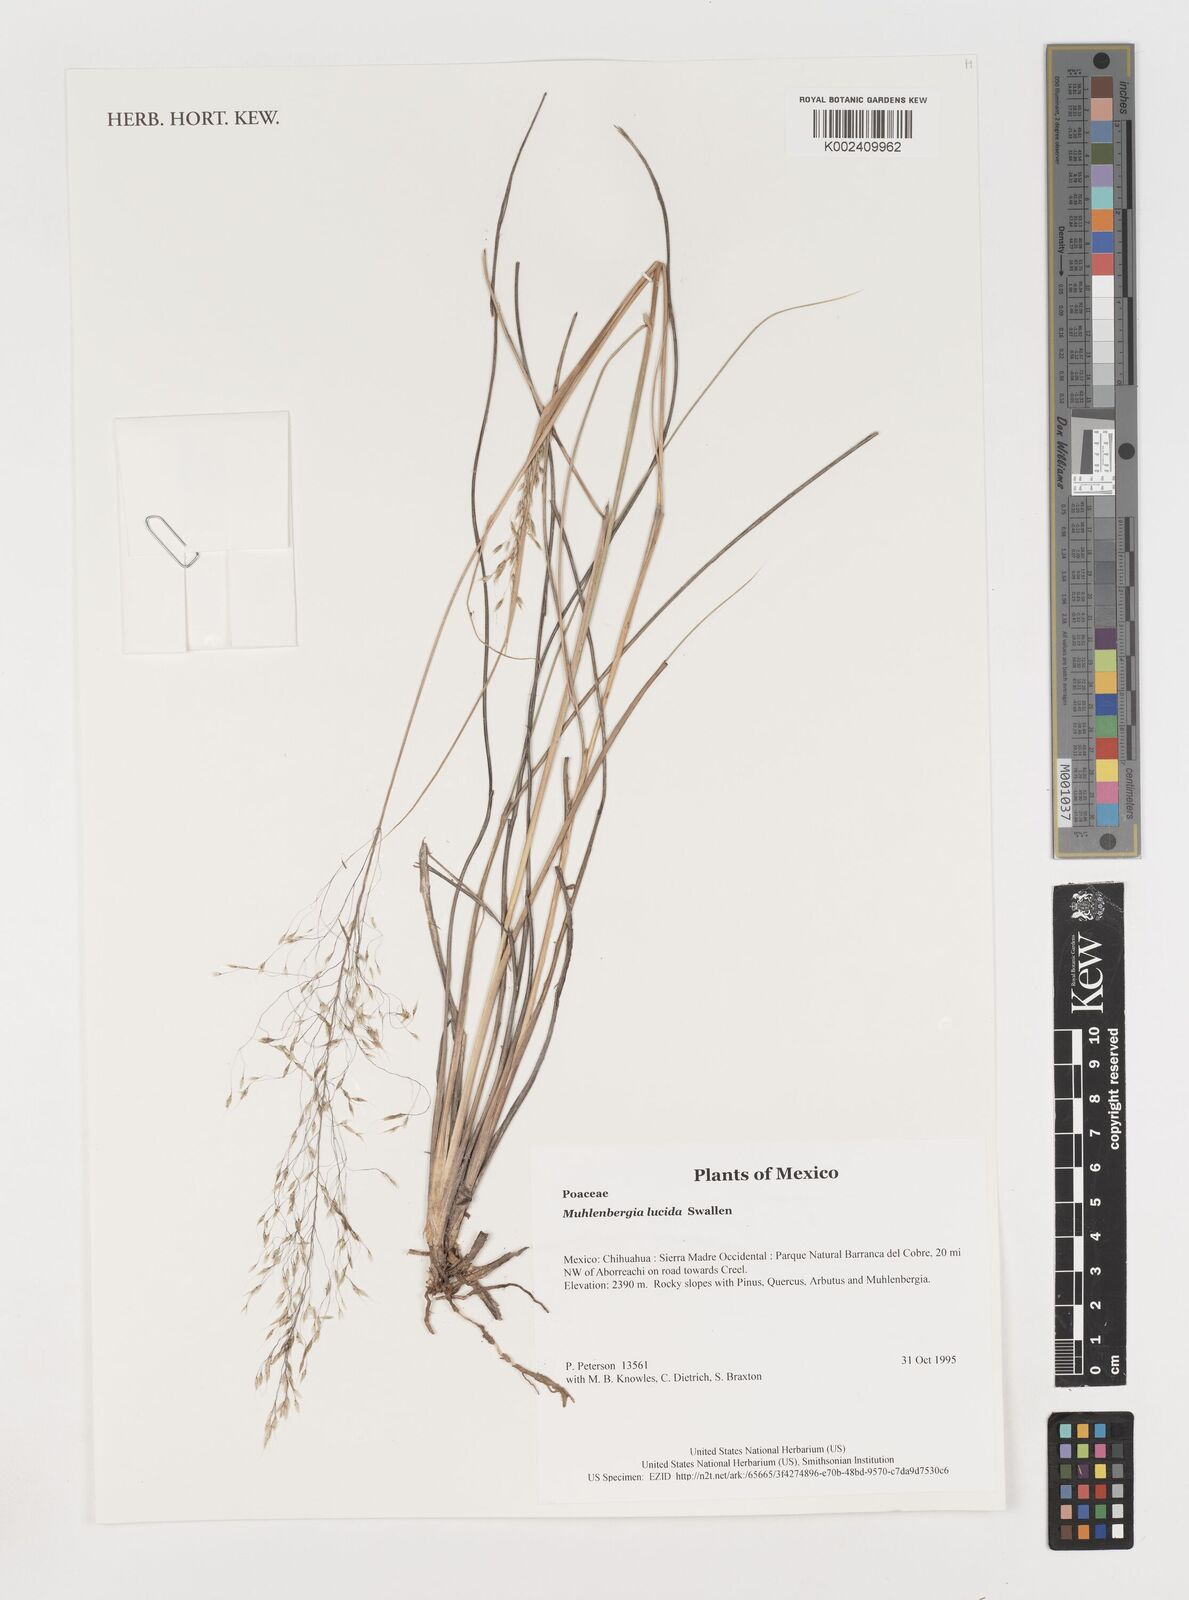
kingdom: Plantae
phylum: Tracheophyta
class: Liliopsida
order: Poales
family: Poaceae
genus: Muhlenbergia
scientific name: Muhlenbergia lucida
